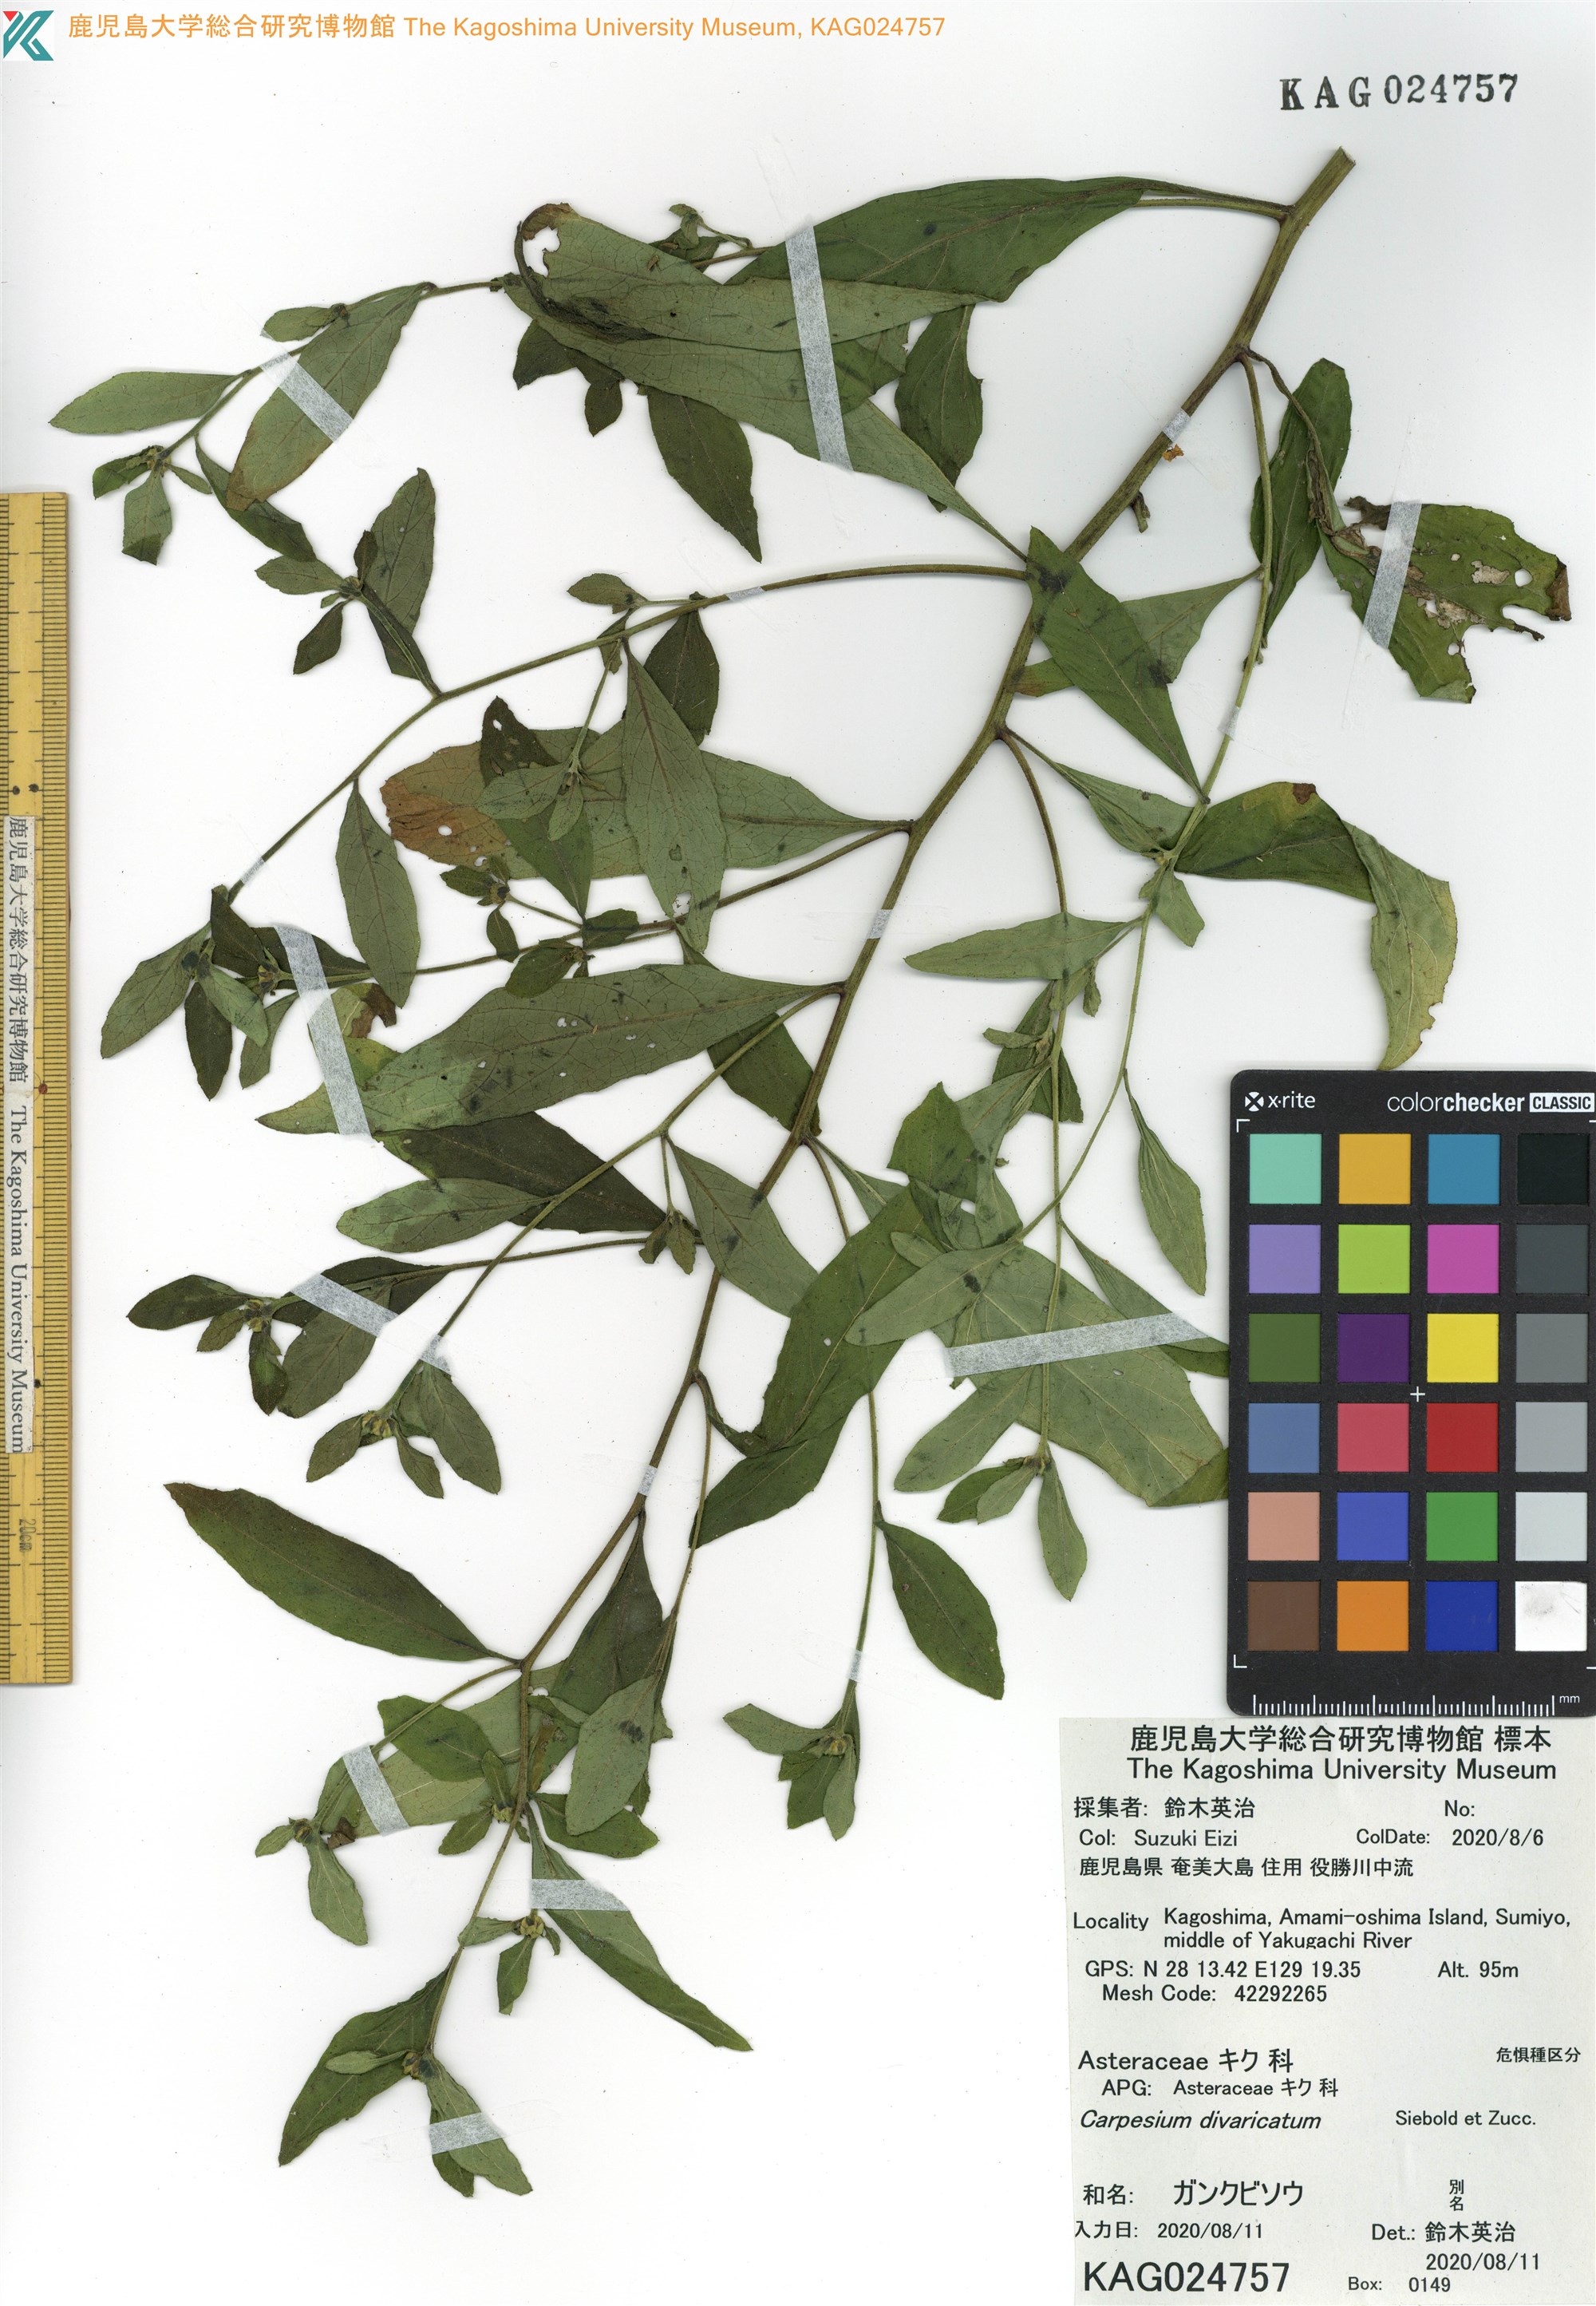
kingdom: Plantae
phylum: Tracheophyta
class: Magnoliopsida
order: Asterales
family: Asteraceae
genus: Carpesium
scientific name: Carpesium divaricatum
